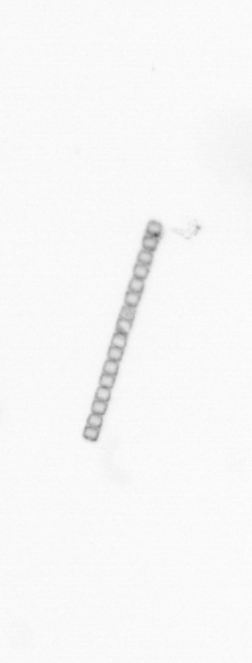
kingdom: Chromista
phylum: Ochrophyta
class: Bacillariophyceae
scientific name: Bacillariophyceae
